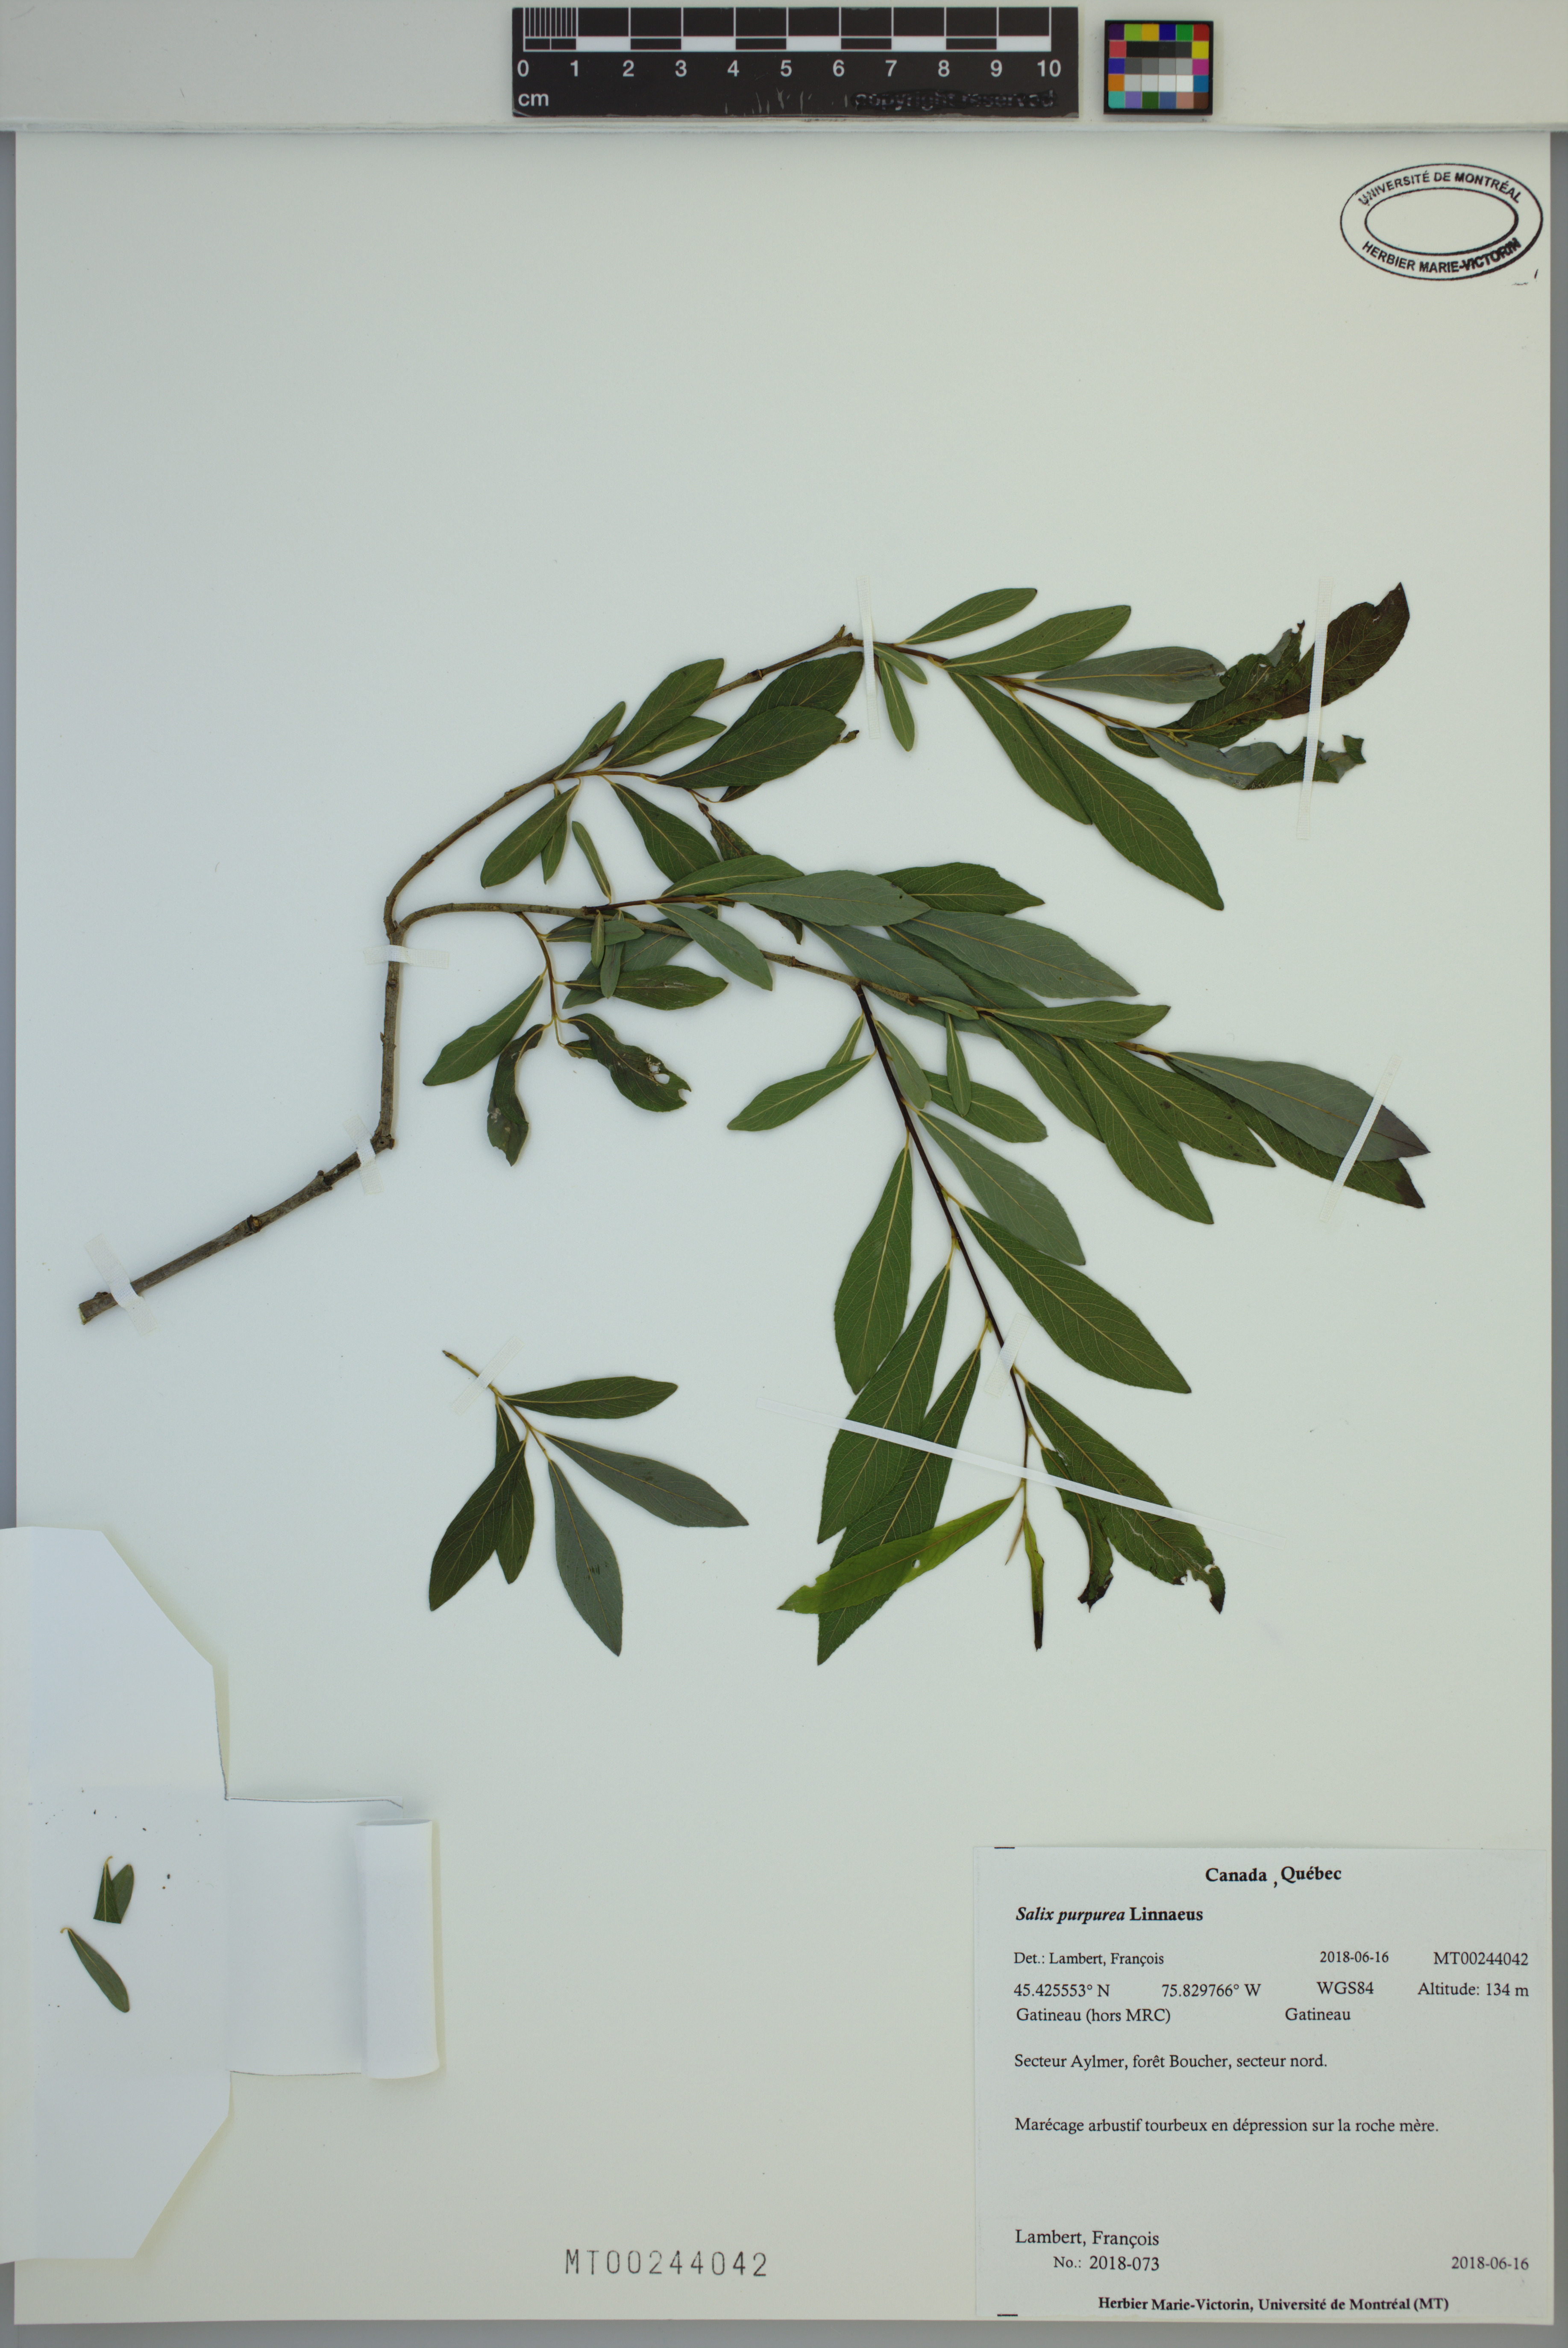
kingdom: Plantae
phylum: Tracheophyta
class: Magnoliopsida
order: Malpighiales
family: Salicaceae
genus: Salix
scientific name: Salix purpurea
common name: Purple willow
